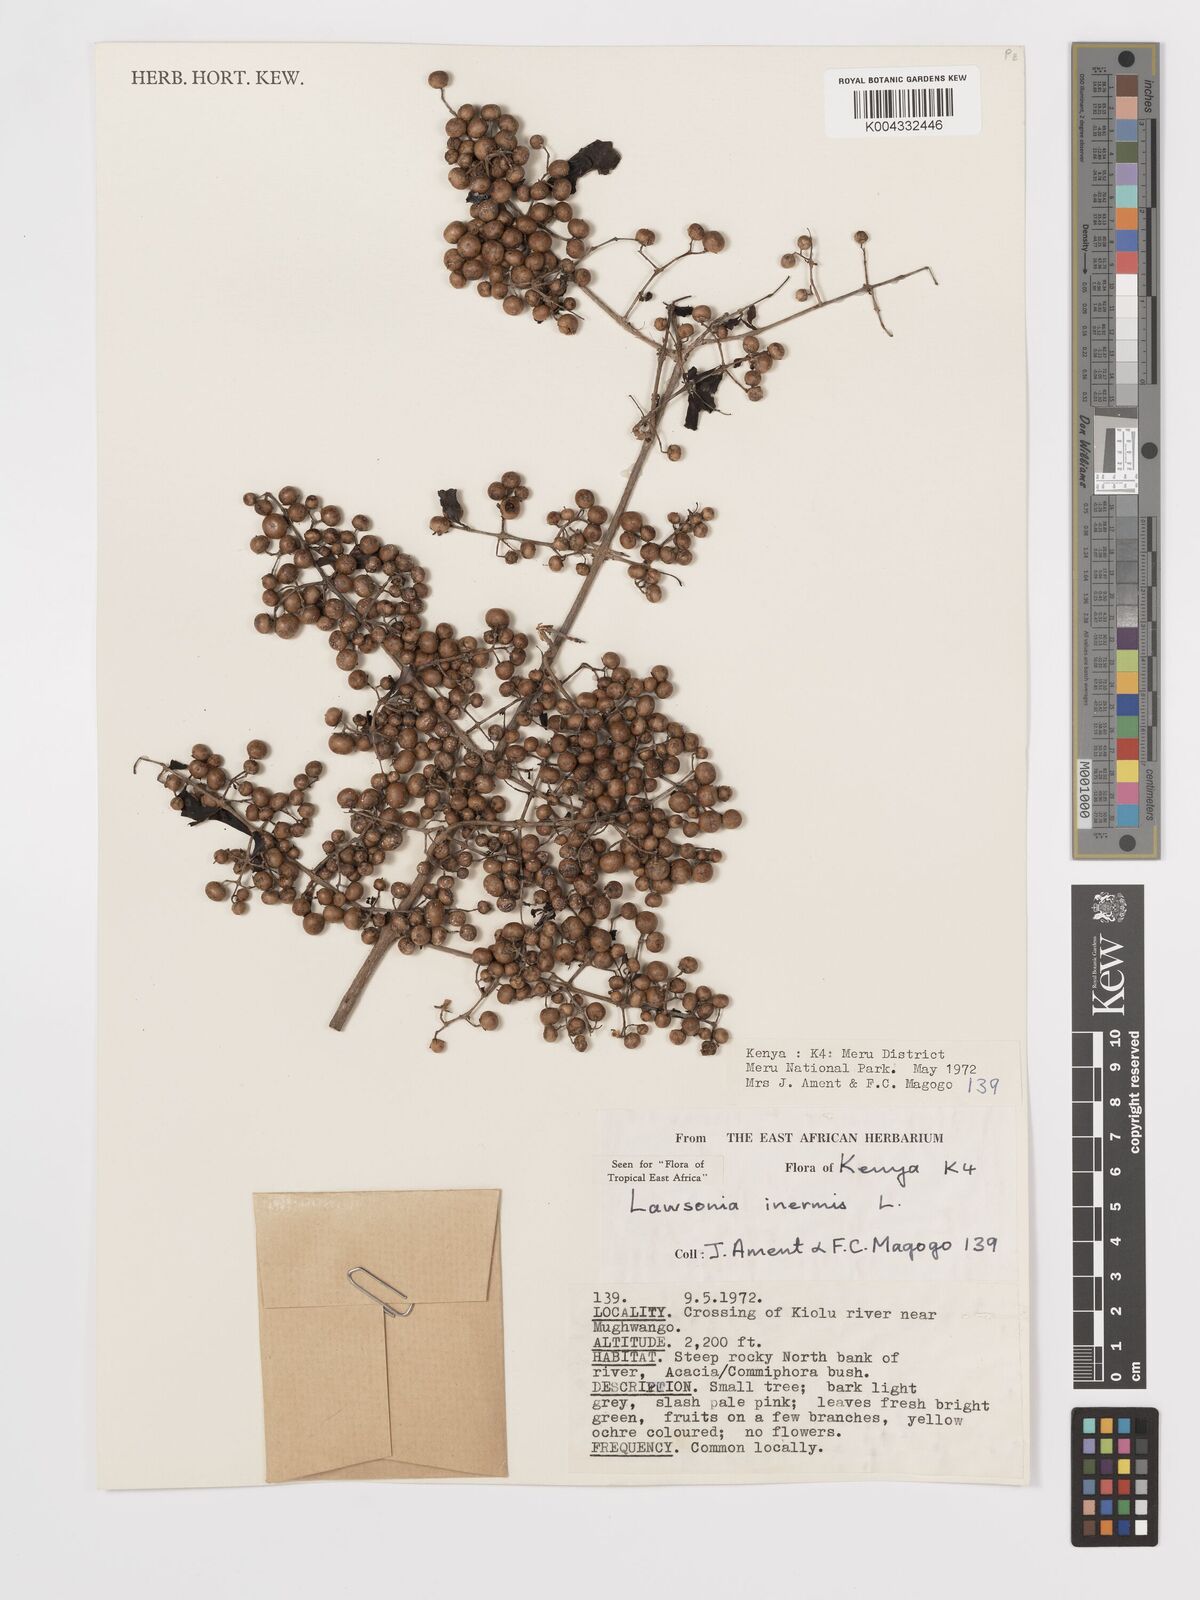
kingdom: Plantae
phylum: Tracheophyta
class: Magnoliopsida
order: Myrtales
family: Lythraceae
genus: Lawsonia
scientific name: Lawsonia inermis
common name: Henna
